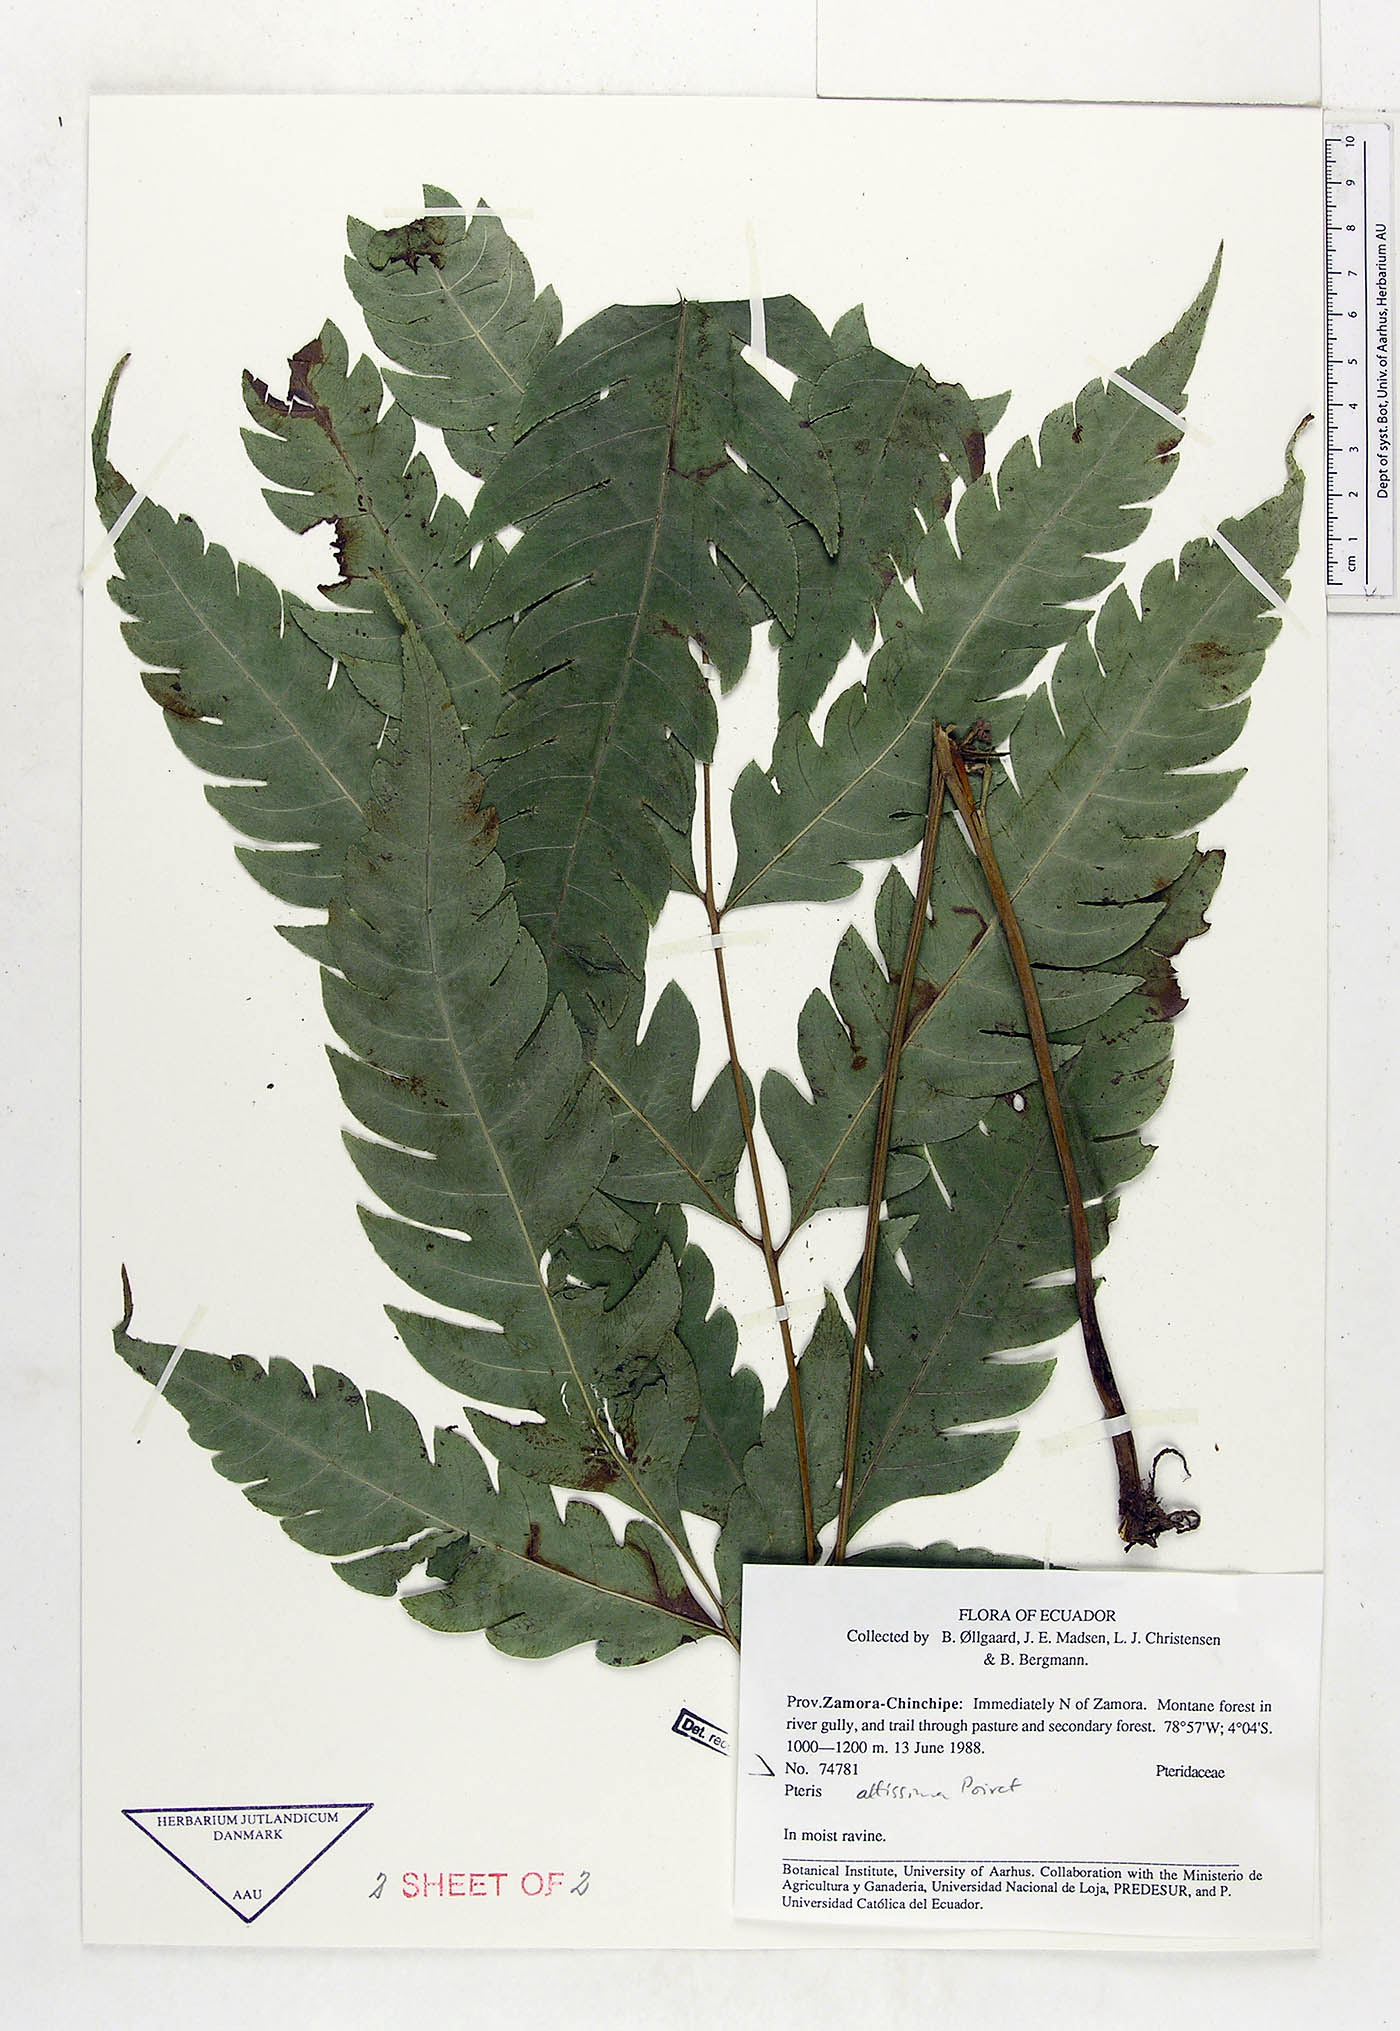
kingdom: Plantae
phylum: Tracheophyta
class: Polypodiopsida
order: Polypodiales
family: Pteridaceae
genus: Pteris
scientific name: Pteris altissima
